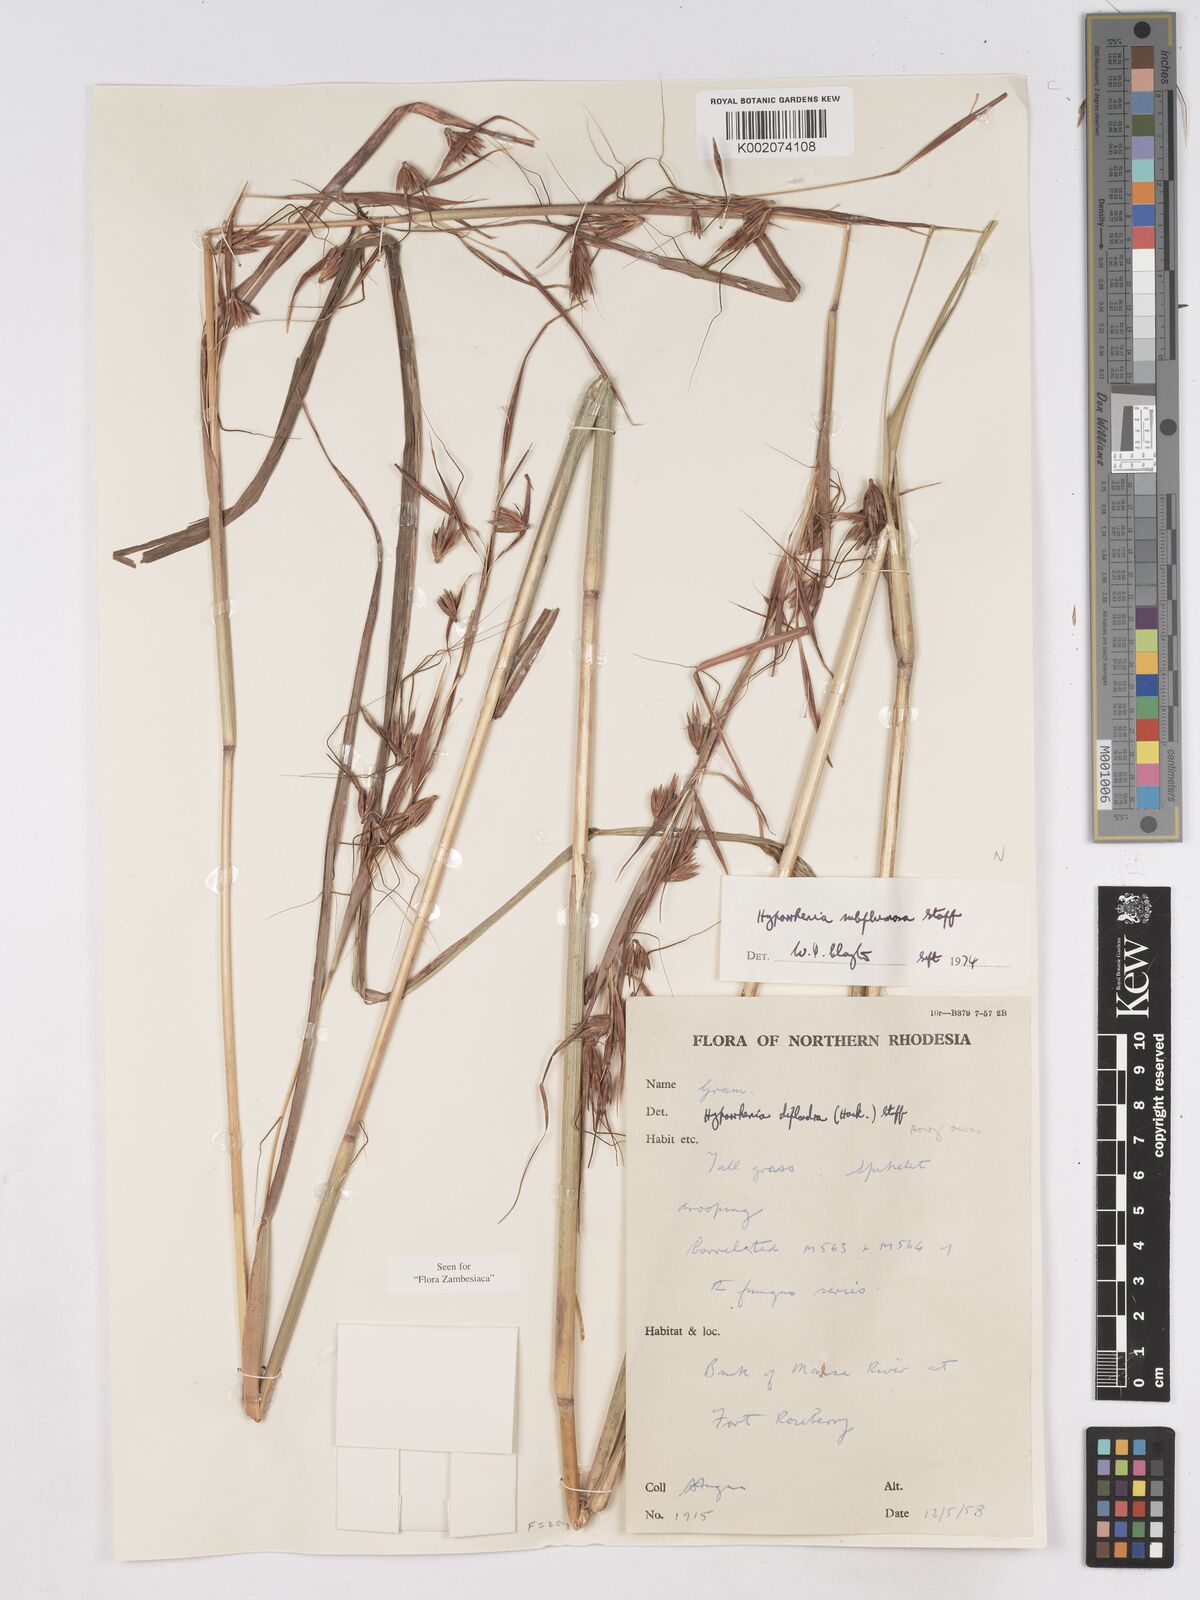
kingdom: Plantae
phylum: Tracheophyta
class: Liliopsida
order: Poales
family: Poaceae
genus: Hyparrhenia
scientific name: Hyparrhenia subplumosa
